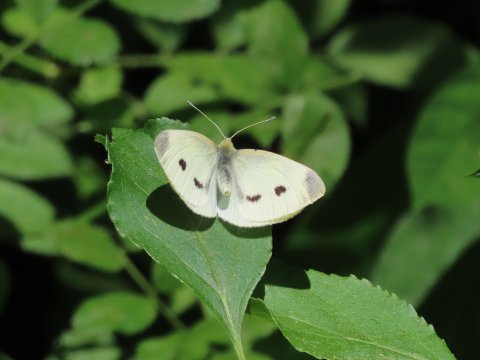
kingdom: Animalia
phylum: Arthropoda
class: Insecta
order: Lepidoptera
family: Pieridae
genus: Pieris
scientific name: Pieris rapae
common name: Cabbage White
